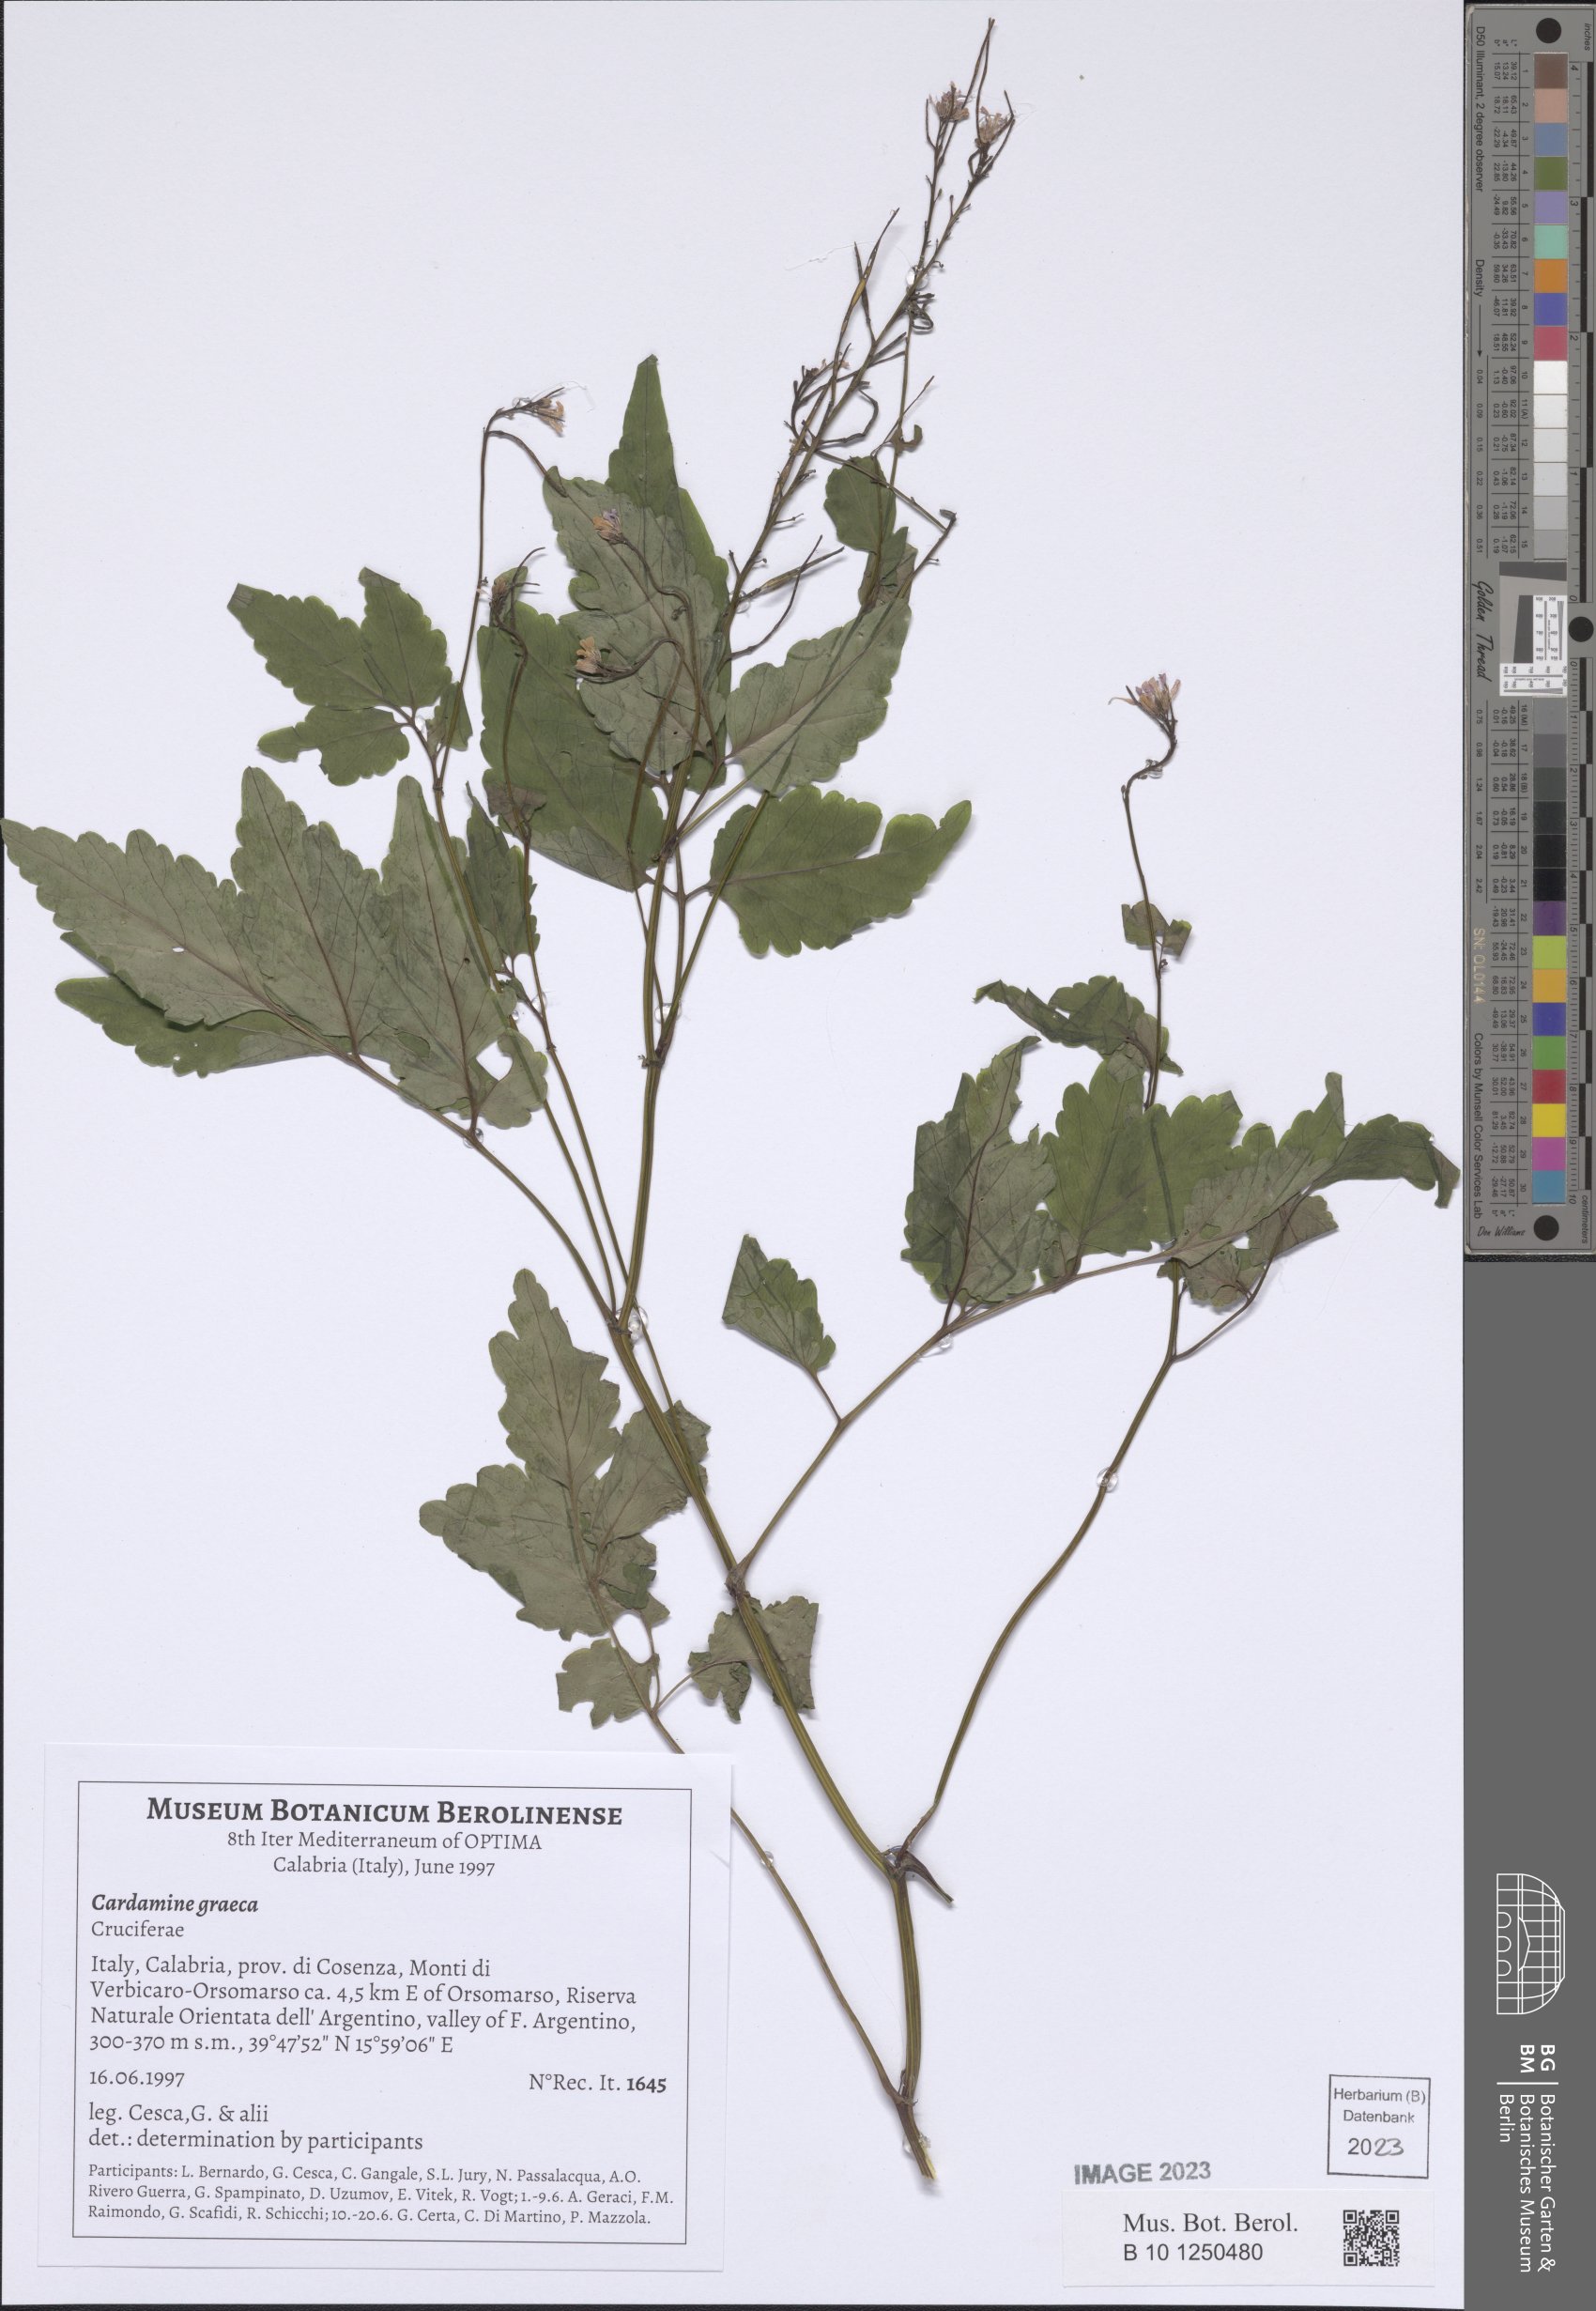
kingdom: Plantae
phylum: Tracheophyta
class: Magnoliopsida
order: Brassicales
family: Brassicaceae
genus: Cardamine
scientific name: Cardamine graeca
